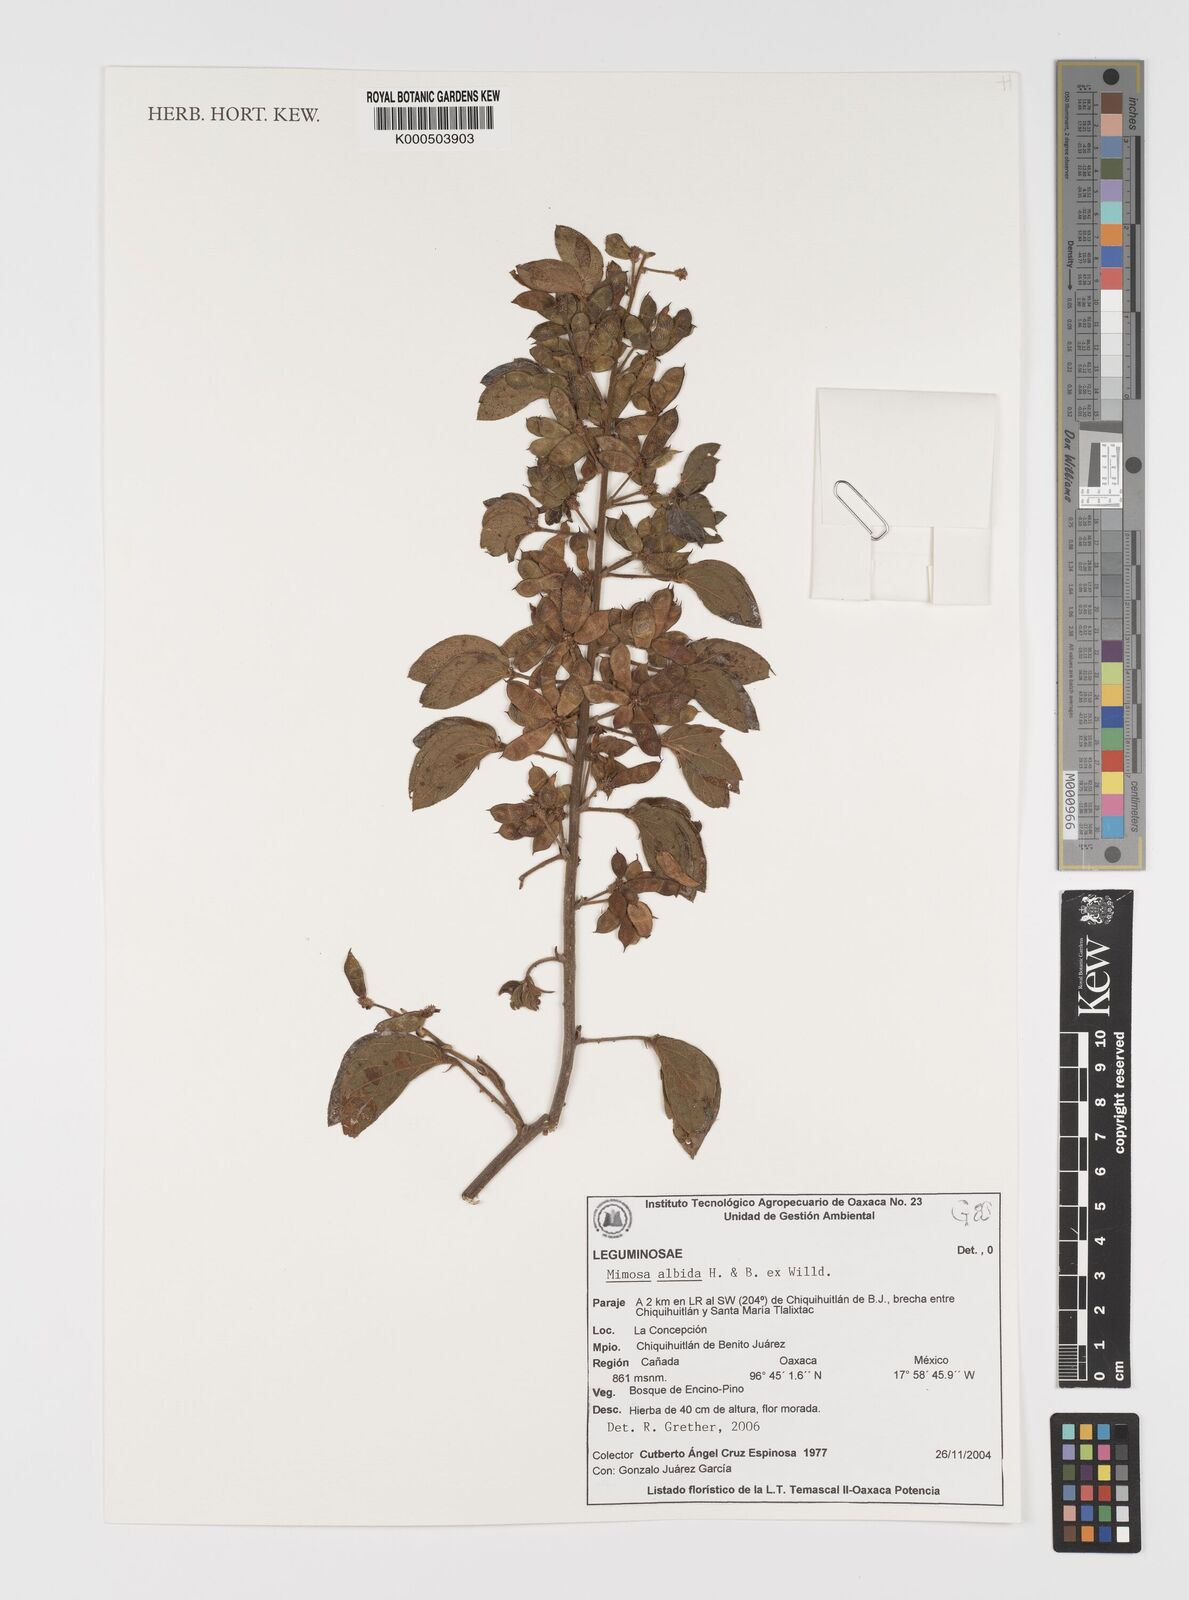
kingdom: Plantae
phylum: Tracheophyta
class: Magnoliopsida
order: Fabales
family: Fabaceae
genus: Mimosa
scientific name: Mimosa albida
